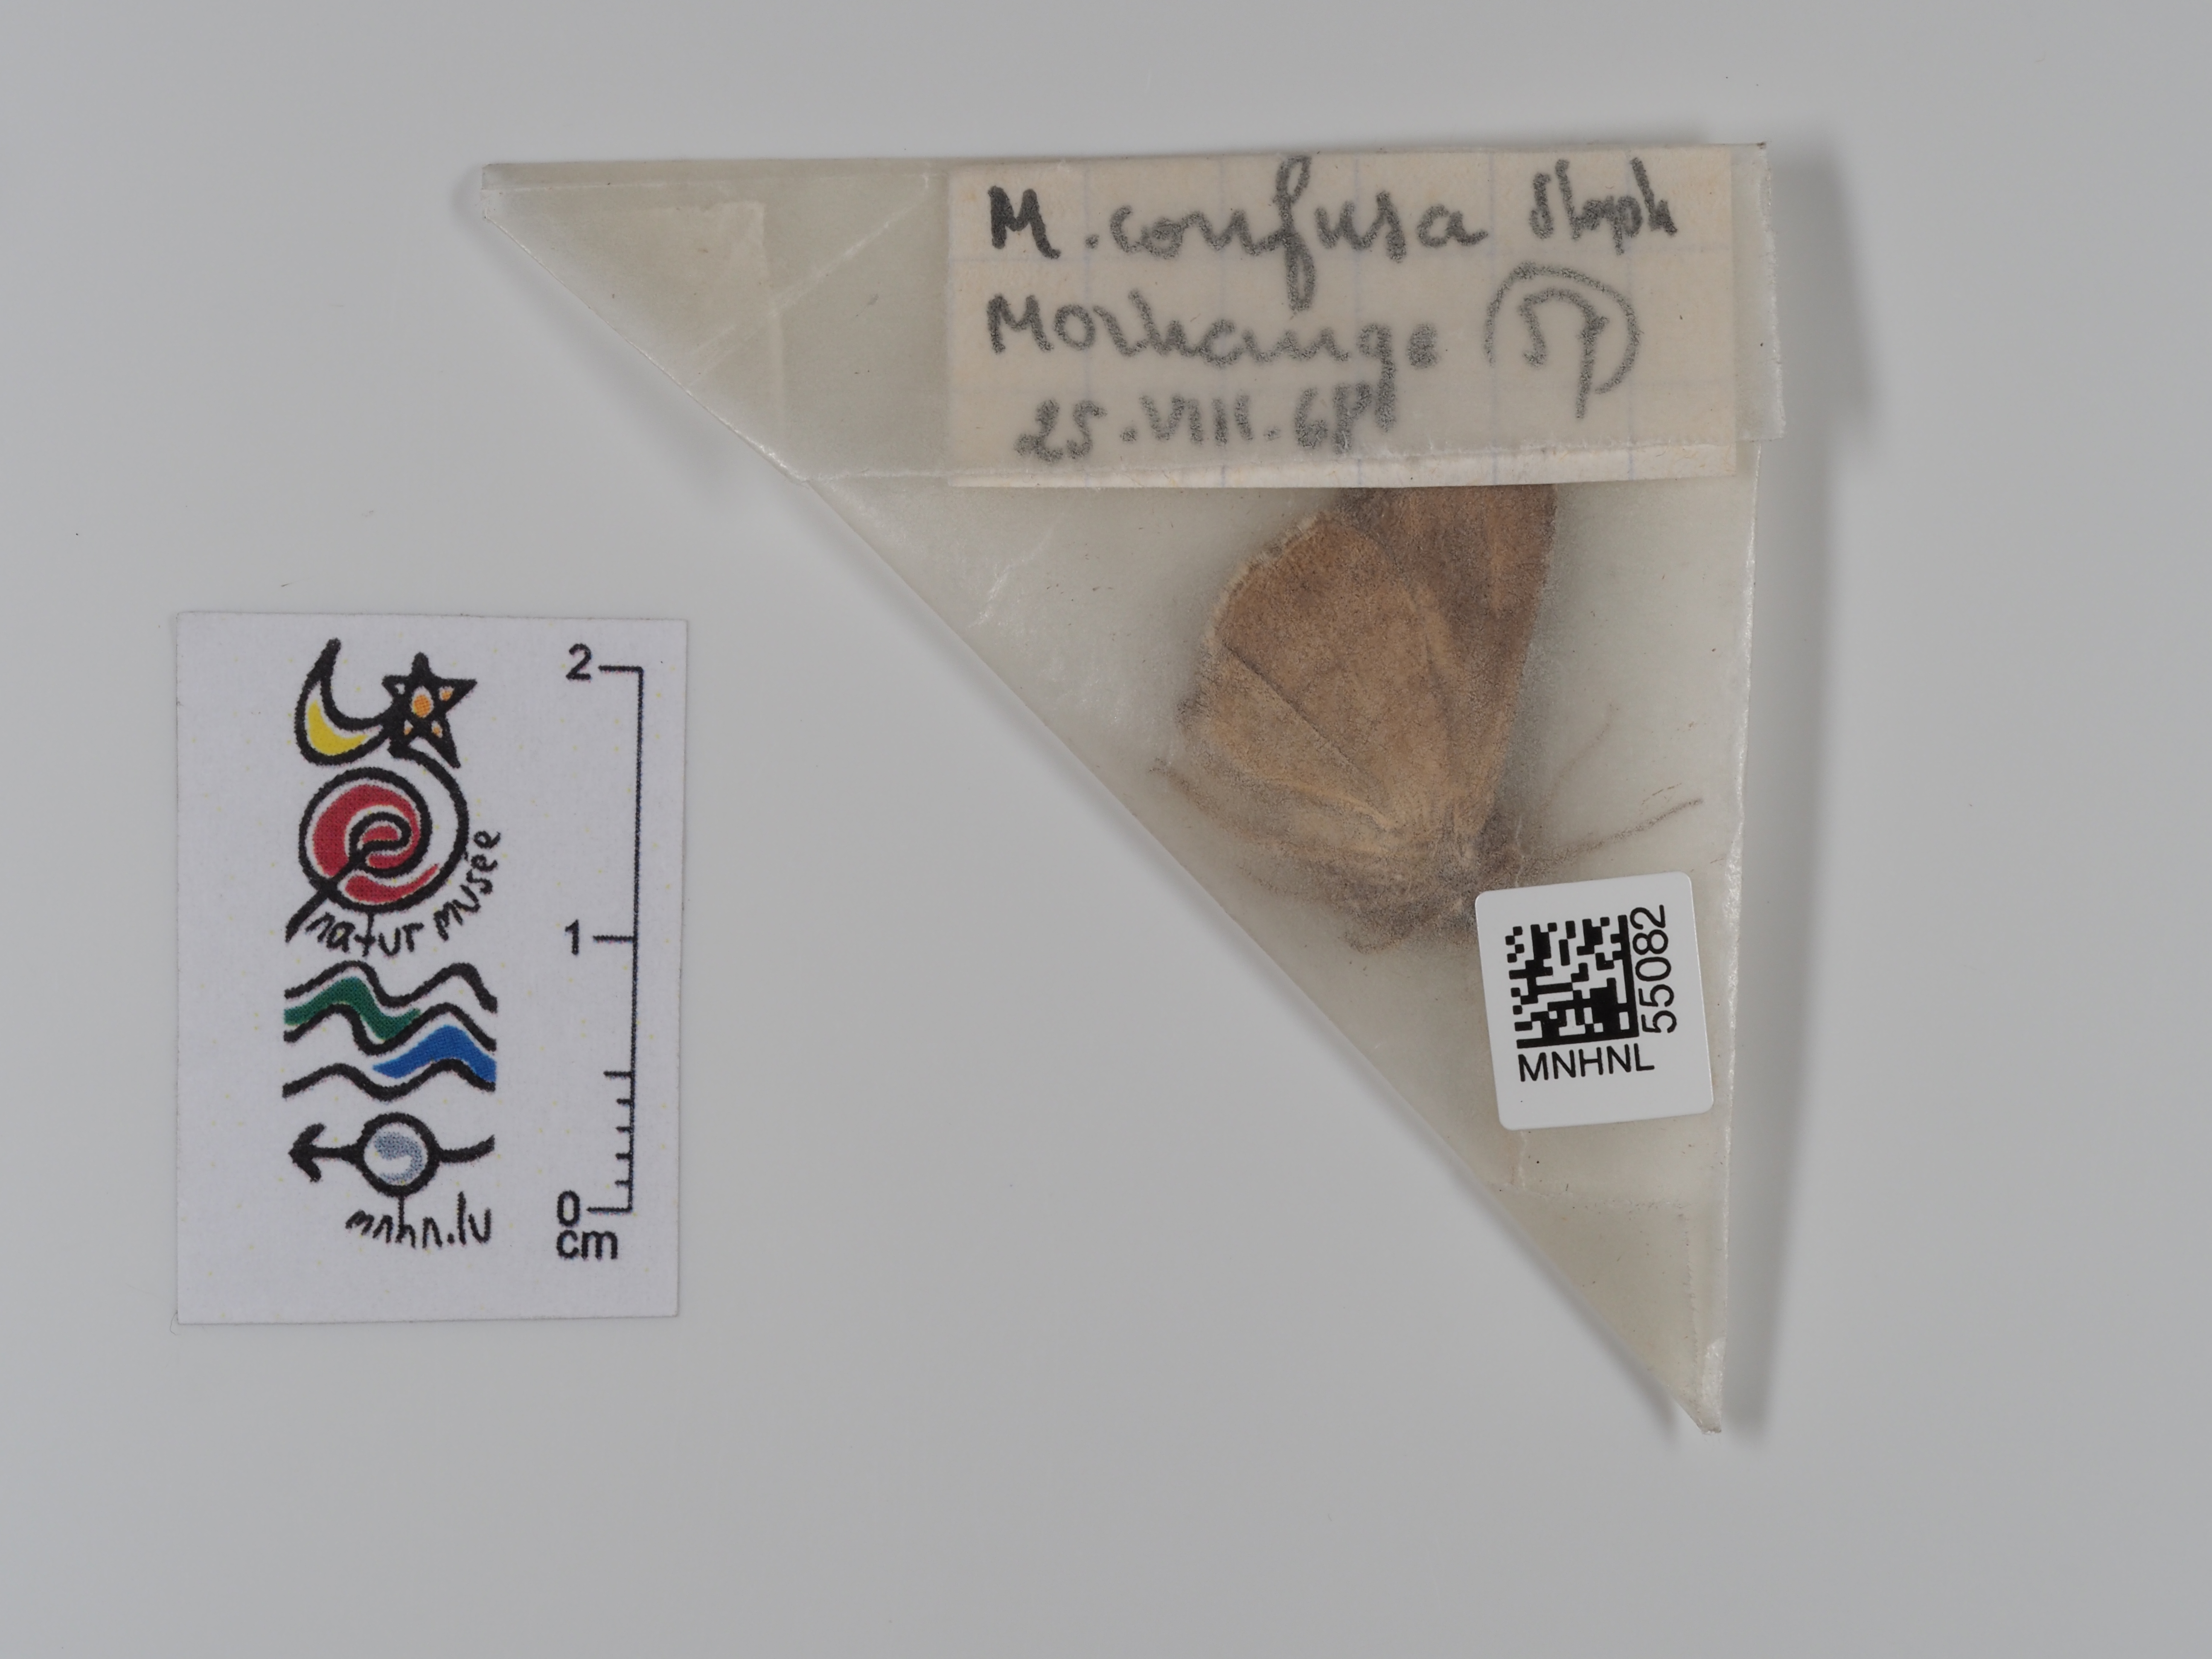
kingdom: Animalia
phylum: Arthropoda
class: Insecta
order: Lepidoptera
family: Noctuidae
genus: Macdunnoughia
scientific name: Macdunnoughia confusa
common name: Dewick's plusia
